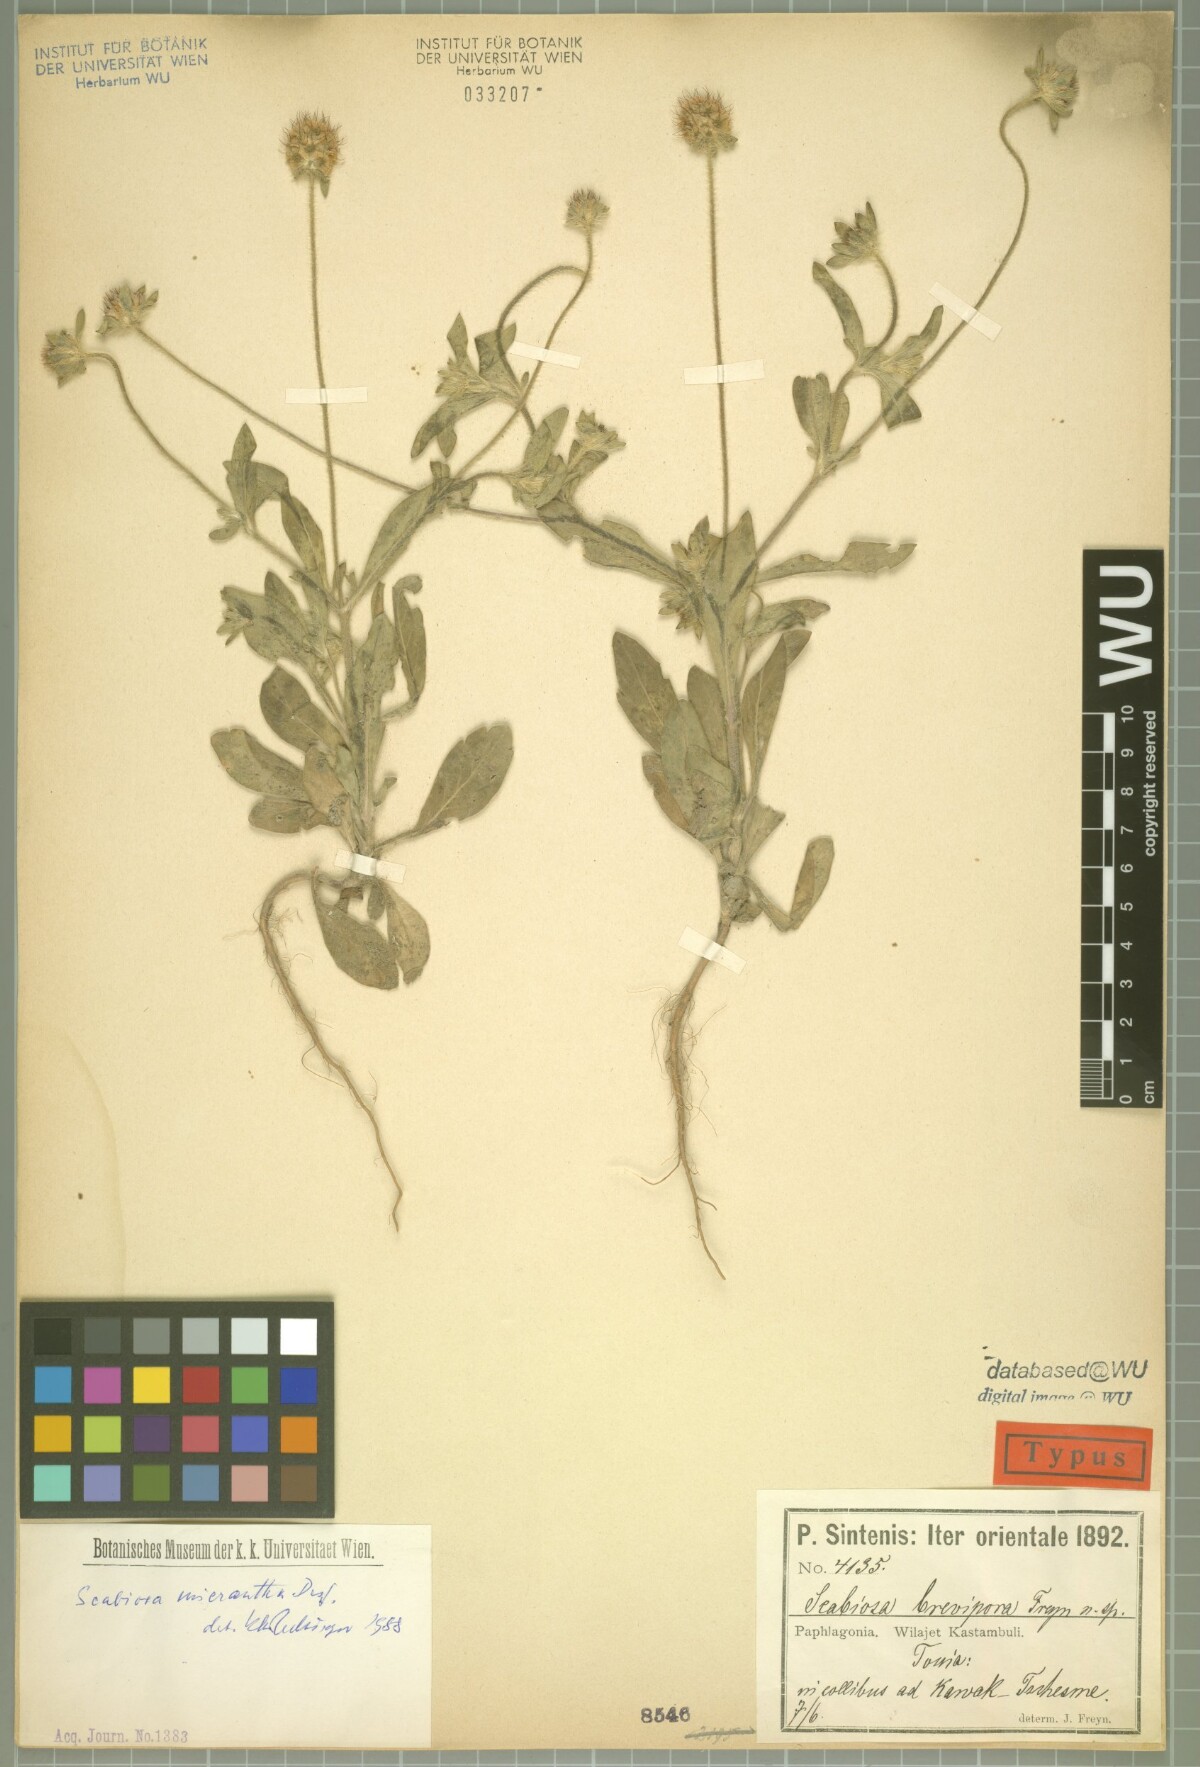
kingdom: Plantae
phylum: Tracheophyta
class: Magnoliopsida
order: Dipsacales
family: Caprifoliaceae
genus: Lomelosia
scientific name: Lomelosia micrantha
